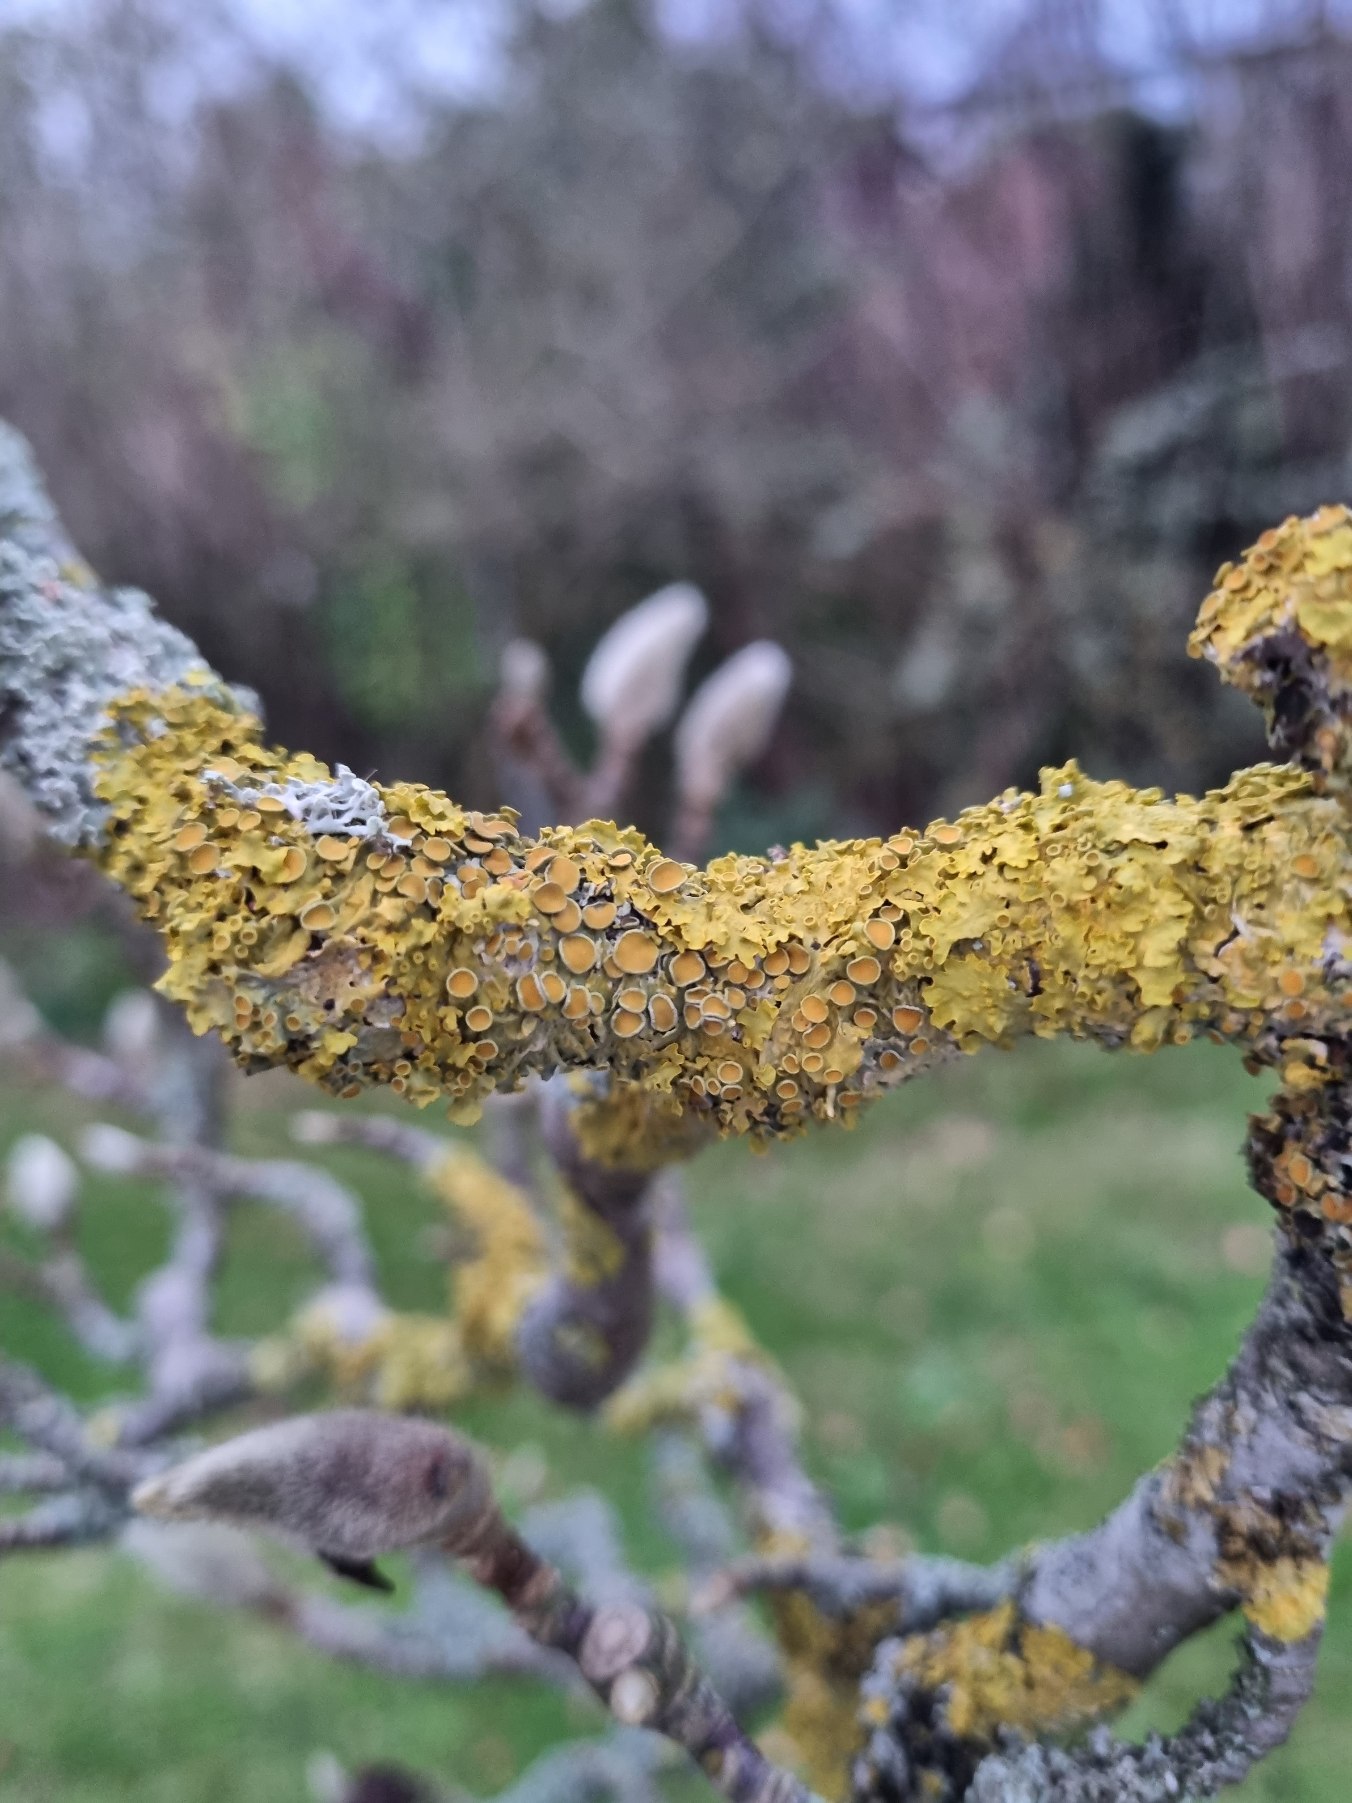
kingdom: Fungi
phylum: Ascomycota
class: Lecanoromycetes
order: Teloschistales
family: Teloschistaceae
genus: Xanthoria
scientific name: Xanthoria parietina
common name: Almindelig væggelav
